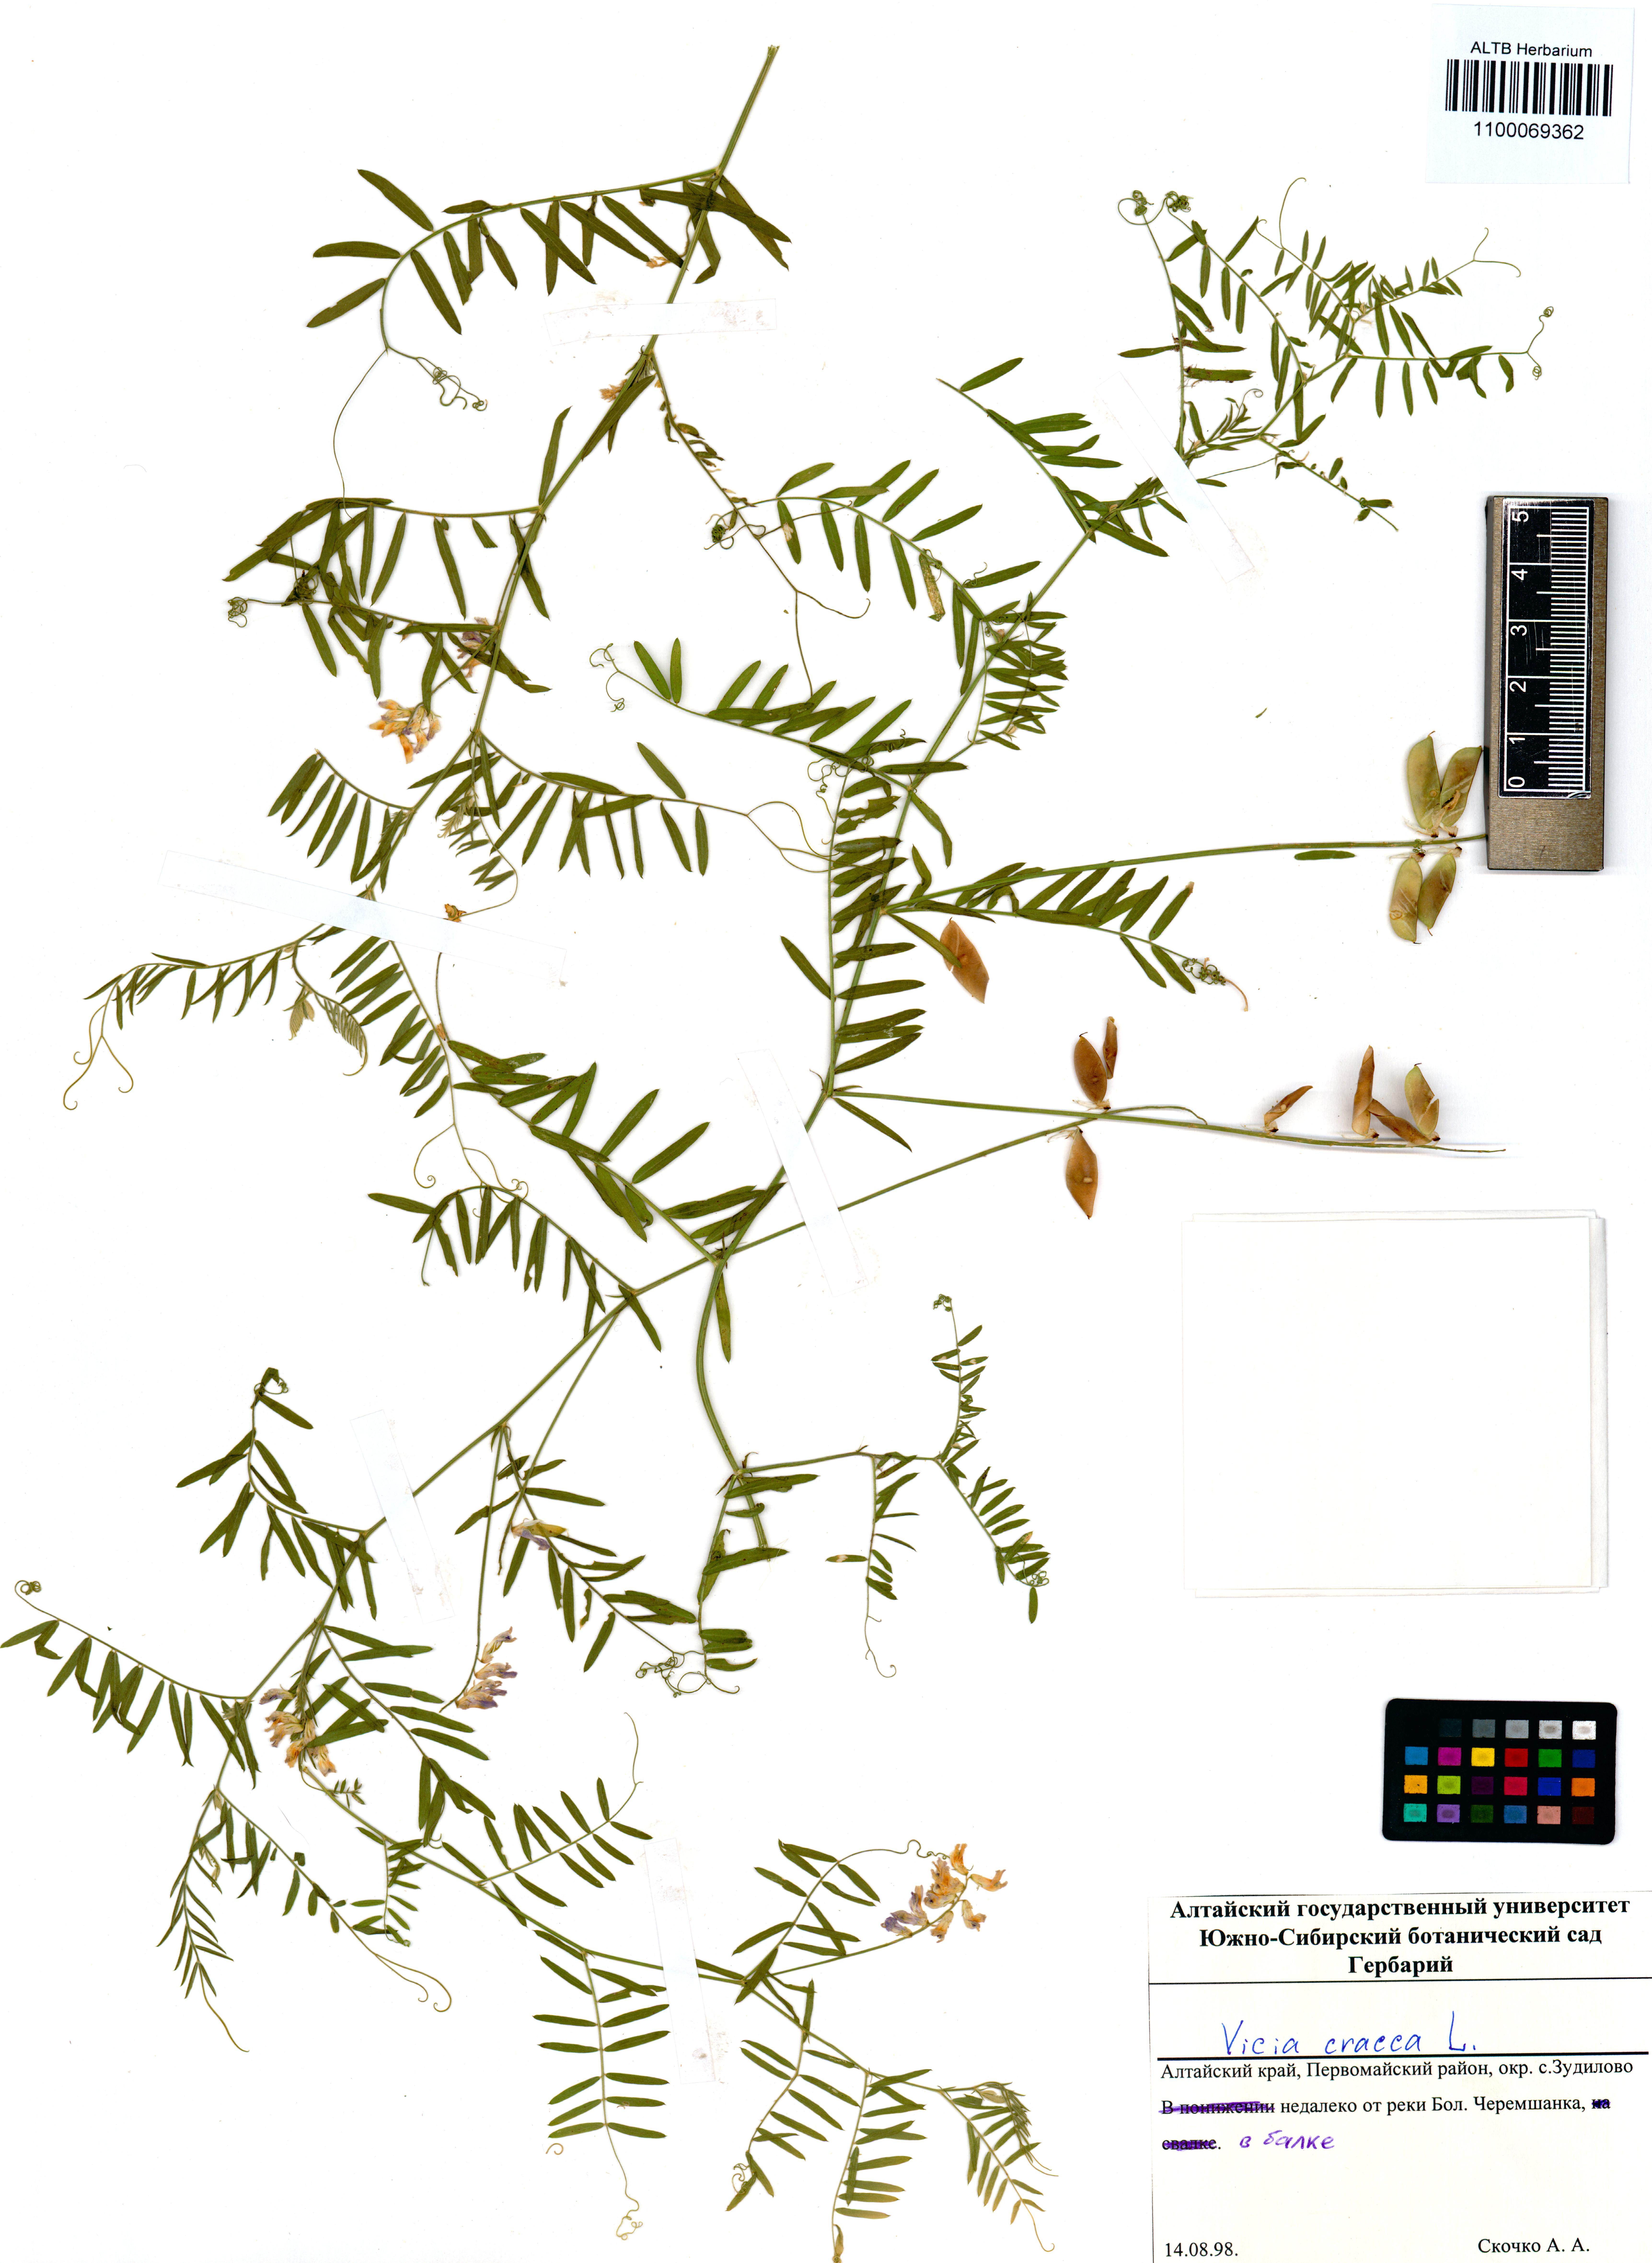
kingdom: Plantae
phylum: Tracheophyta
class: Magnoliopsida
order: Fabales
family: Fabaceae
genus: Vicia
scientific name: Vicia cracca
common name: Bird vetch
